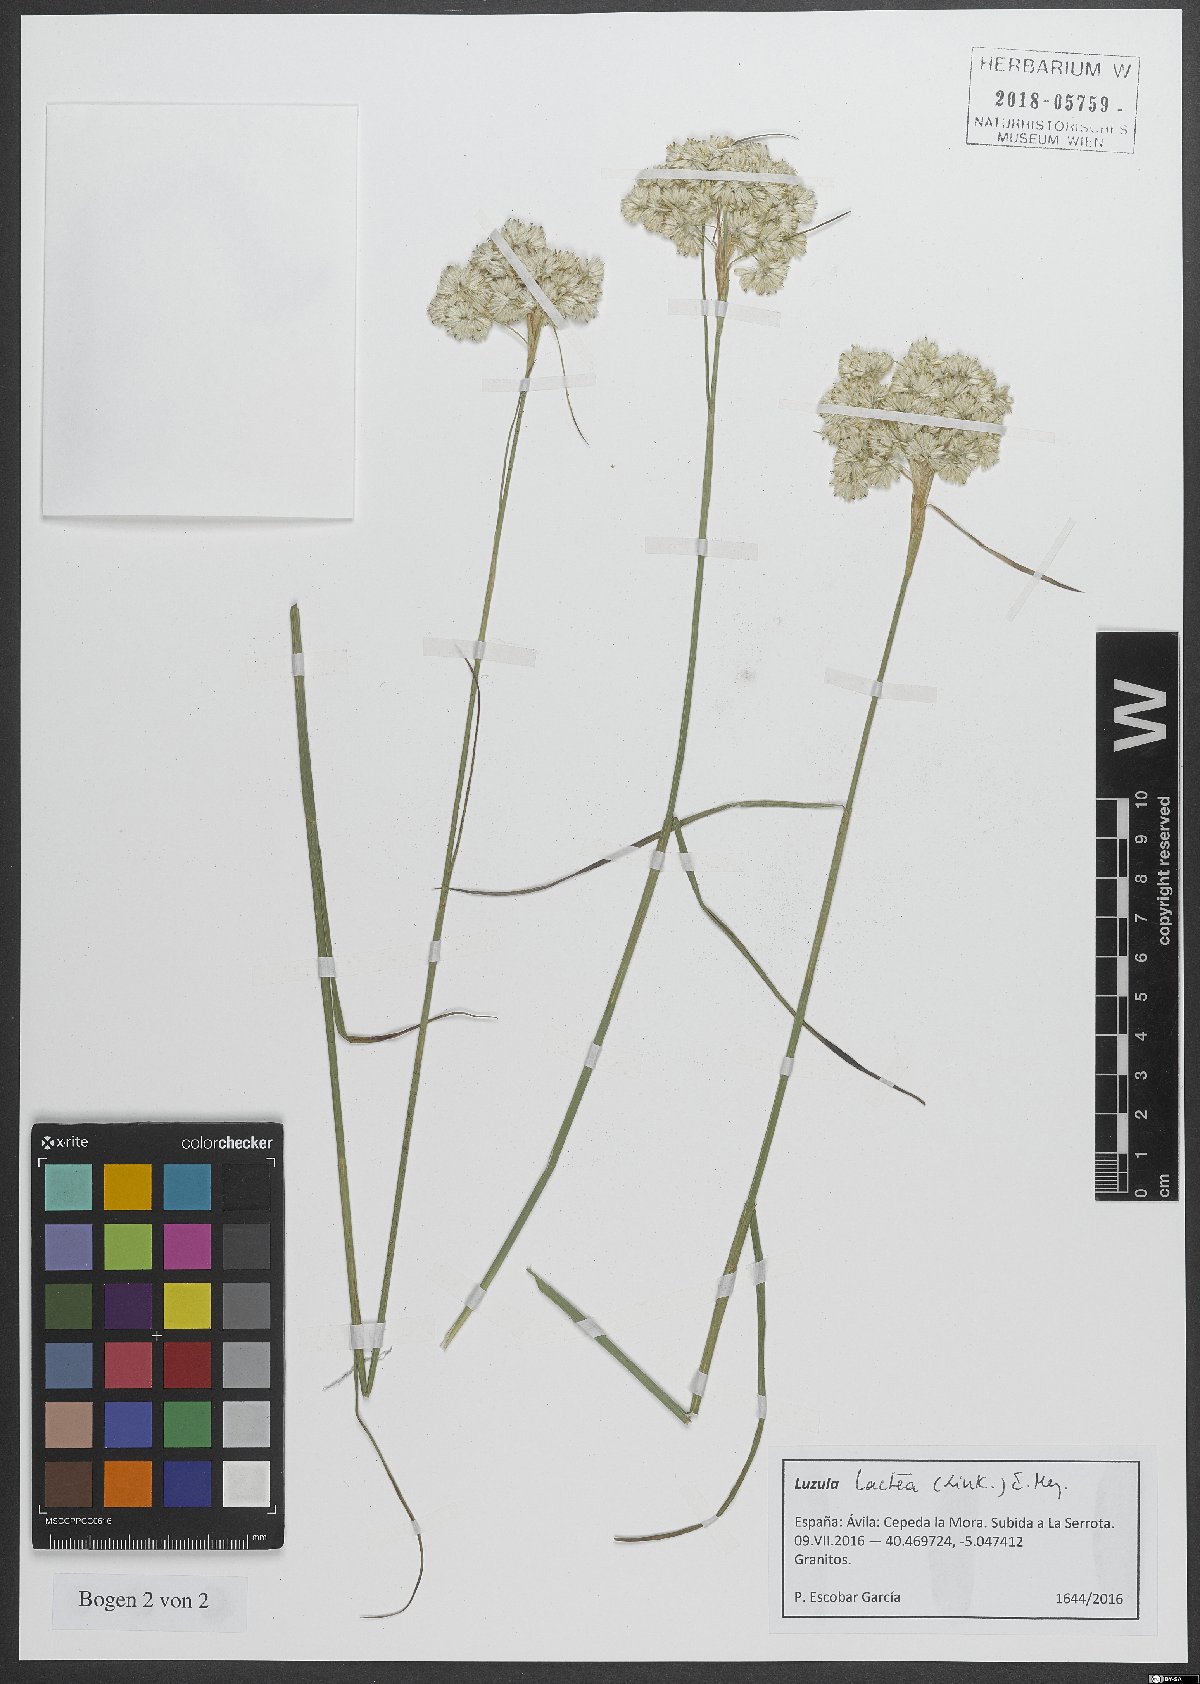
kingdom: Plantae
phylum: Tracheophyta
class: Liliopsida
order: Poales
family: Juncaceae
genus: Luzula
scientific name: Luzula lactea
